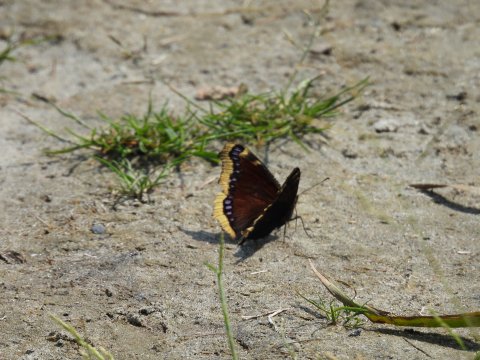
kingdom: Animalia
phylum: Arthropoda
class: Insecta
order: Lepidoptera
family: Nymphalidae
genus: Nymphalis
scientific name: Nymphalis antiopa
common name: Mourning Cloak
